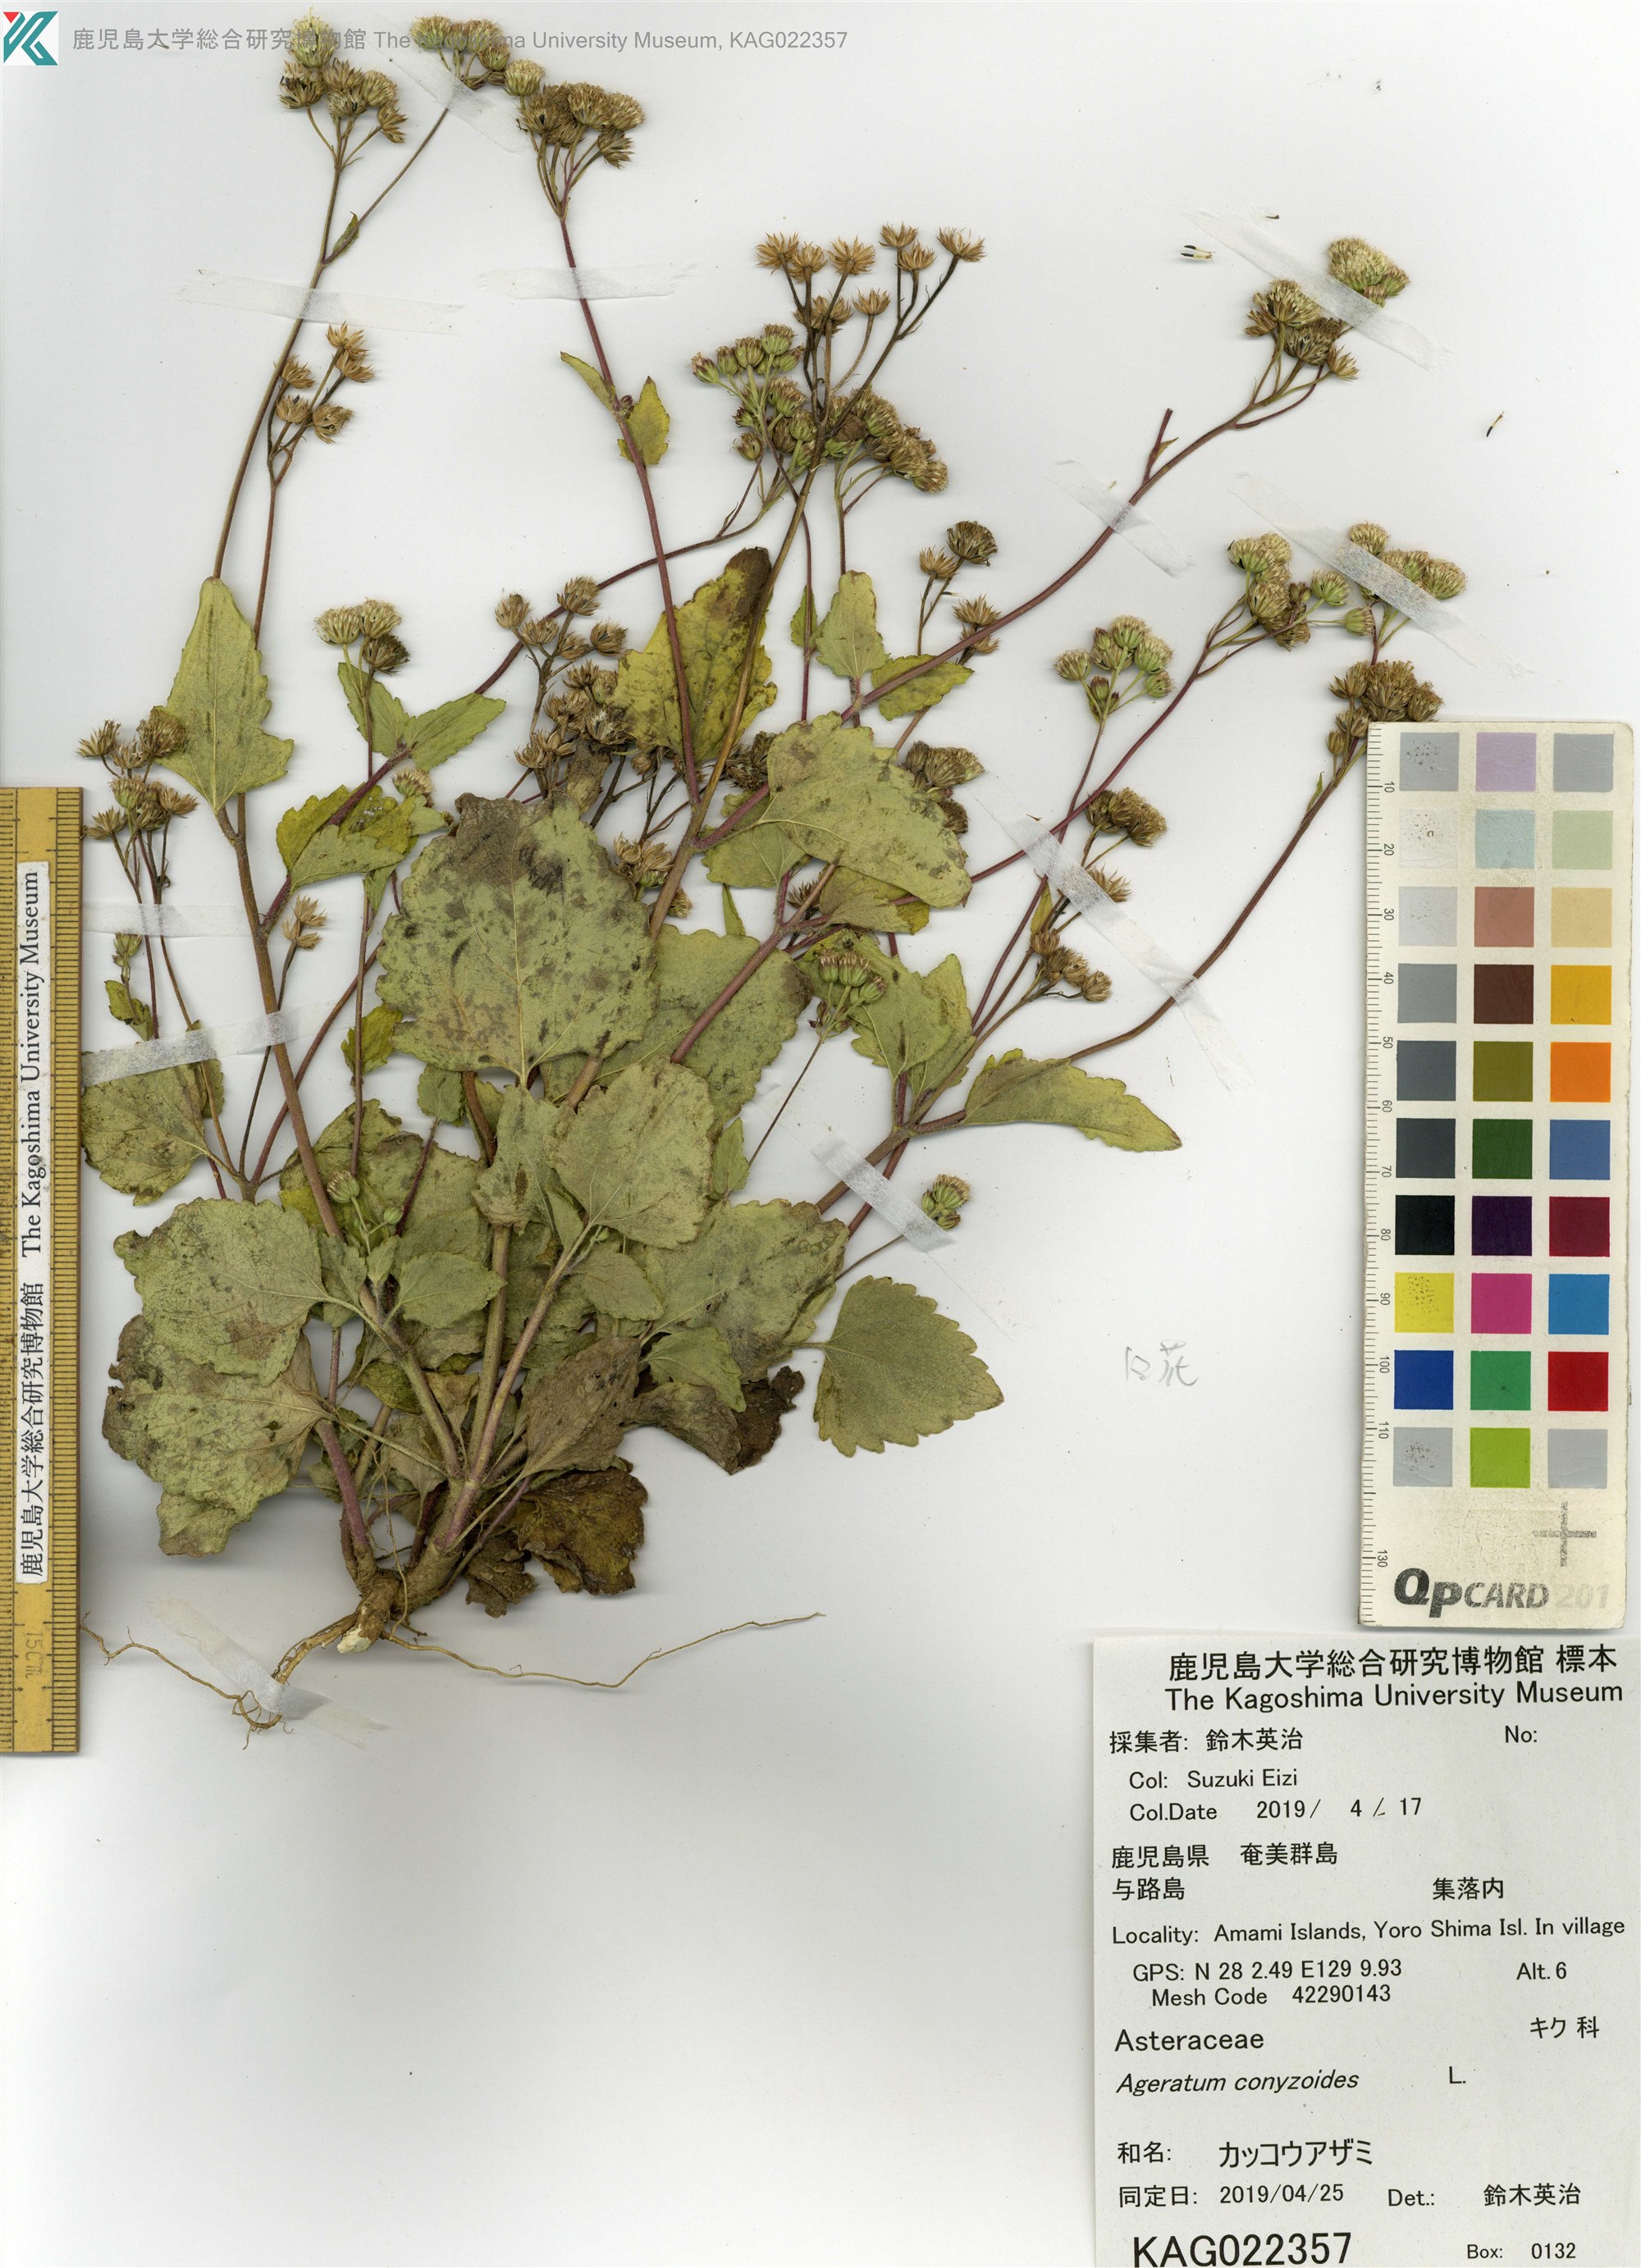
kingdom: Plantae
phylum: Tracheophyta
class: Magnoliopsida
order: Asterales
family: Asteraceae
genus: Ageratum
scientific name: Ageratum conyzoides
